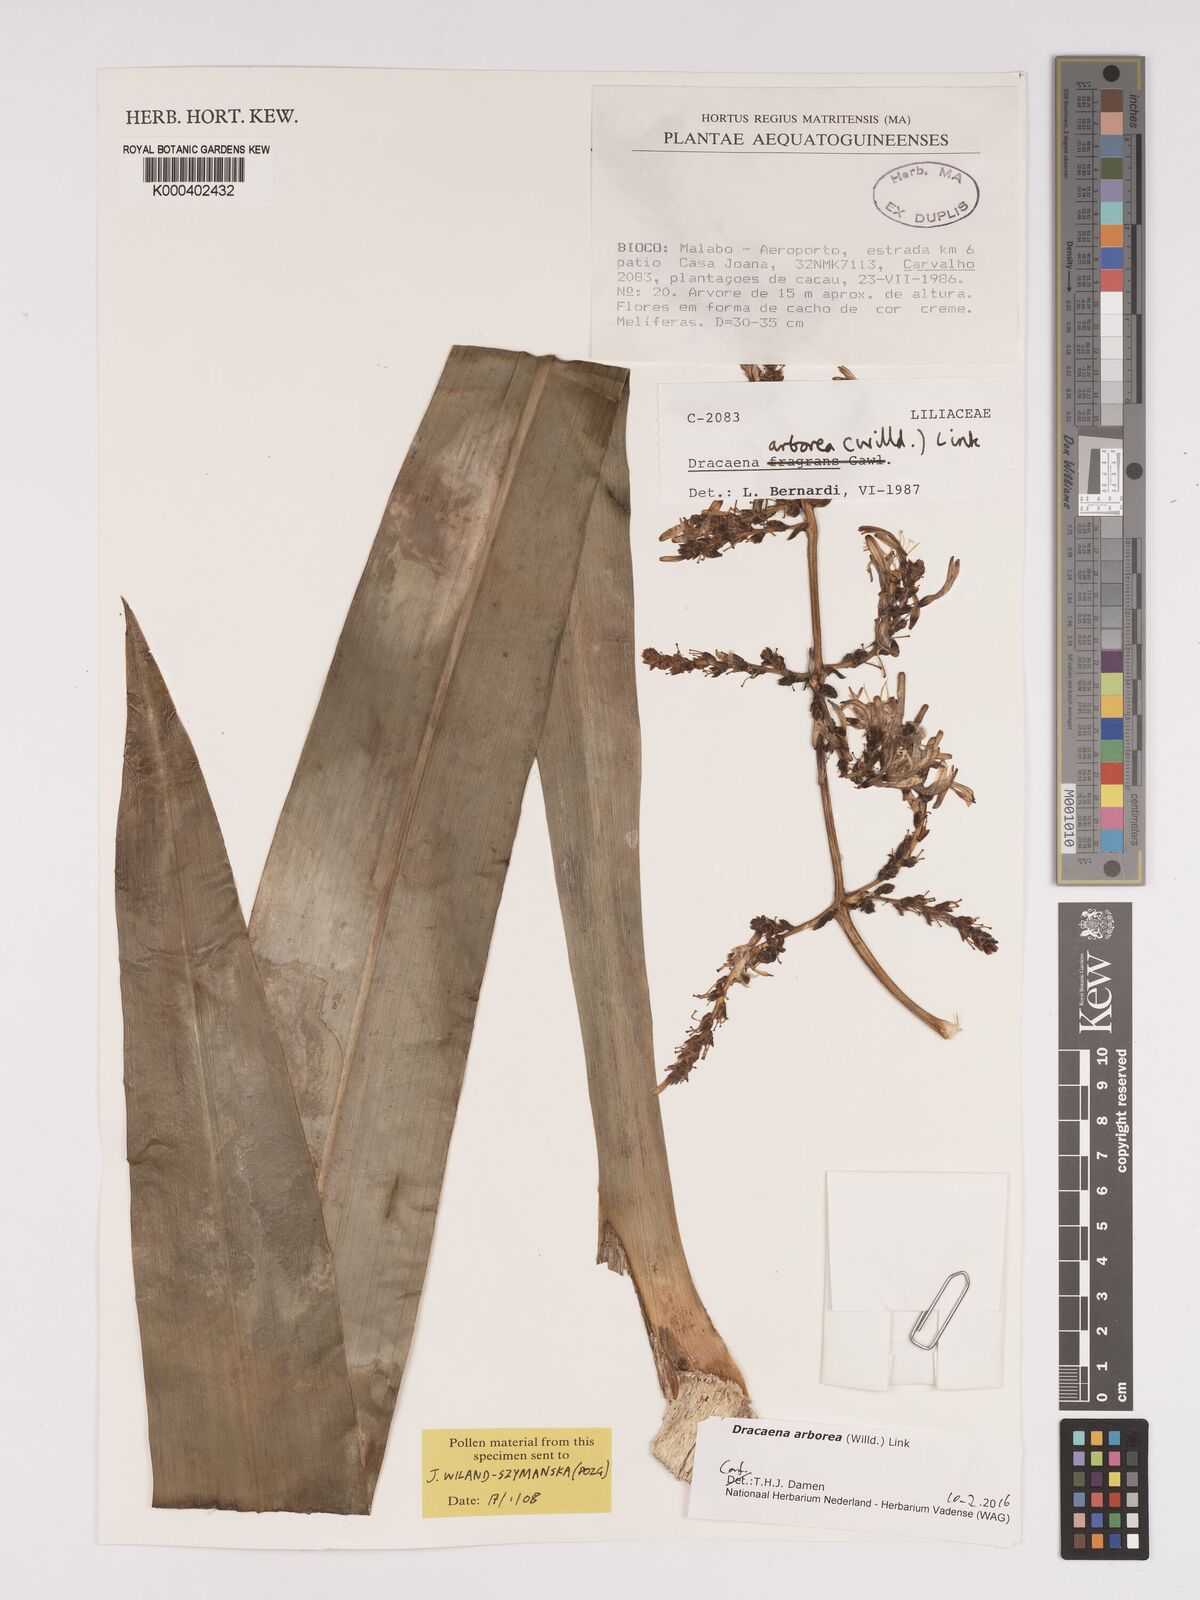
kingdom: Plantae
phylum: Tracheophyta
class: Liliopsida
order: Asparagales
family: Asparagaceae
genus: Dracaena
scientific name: Dracaena arborea
